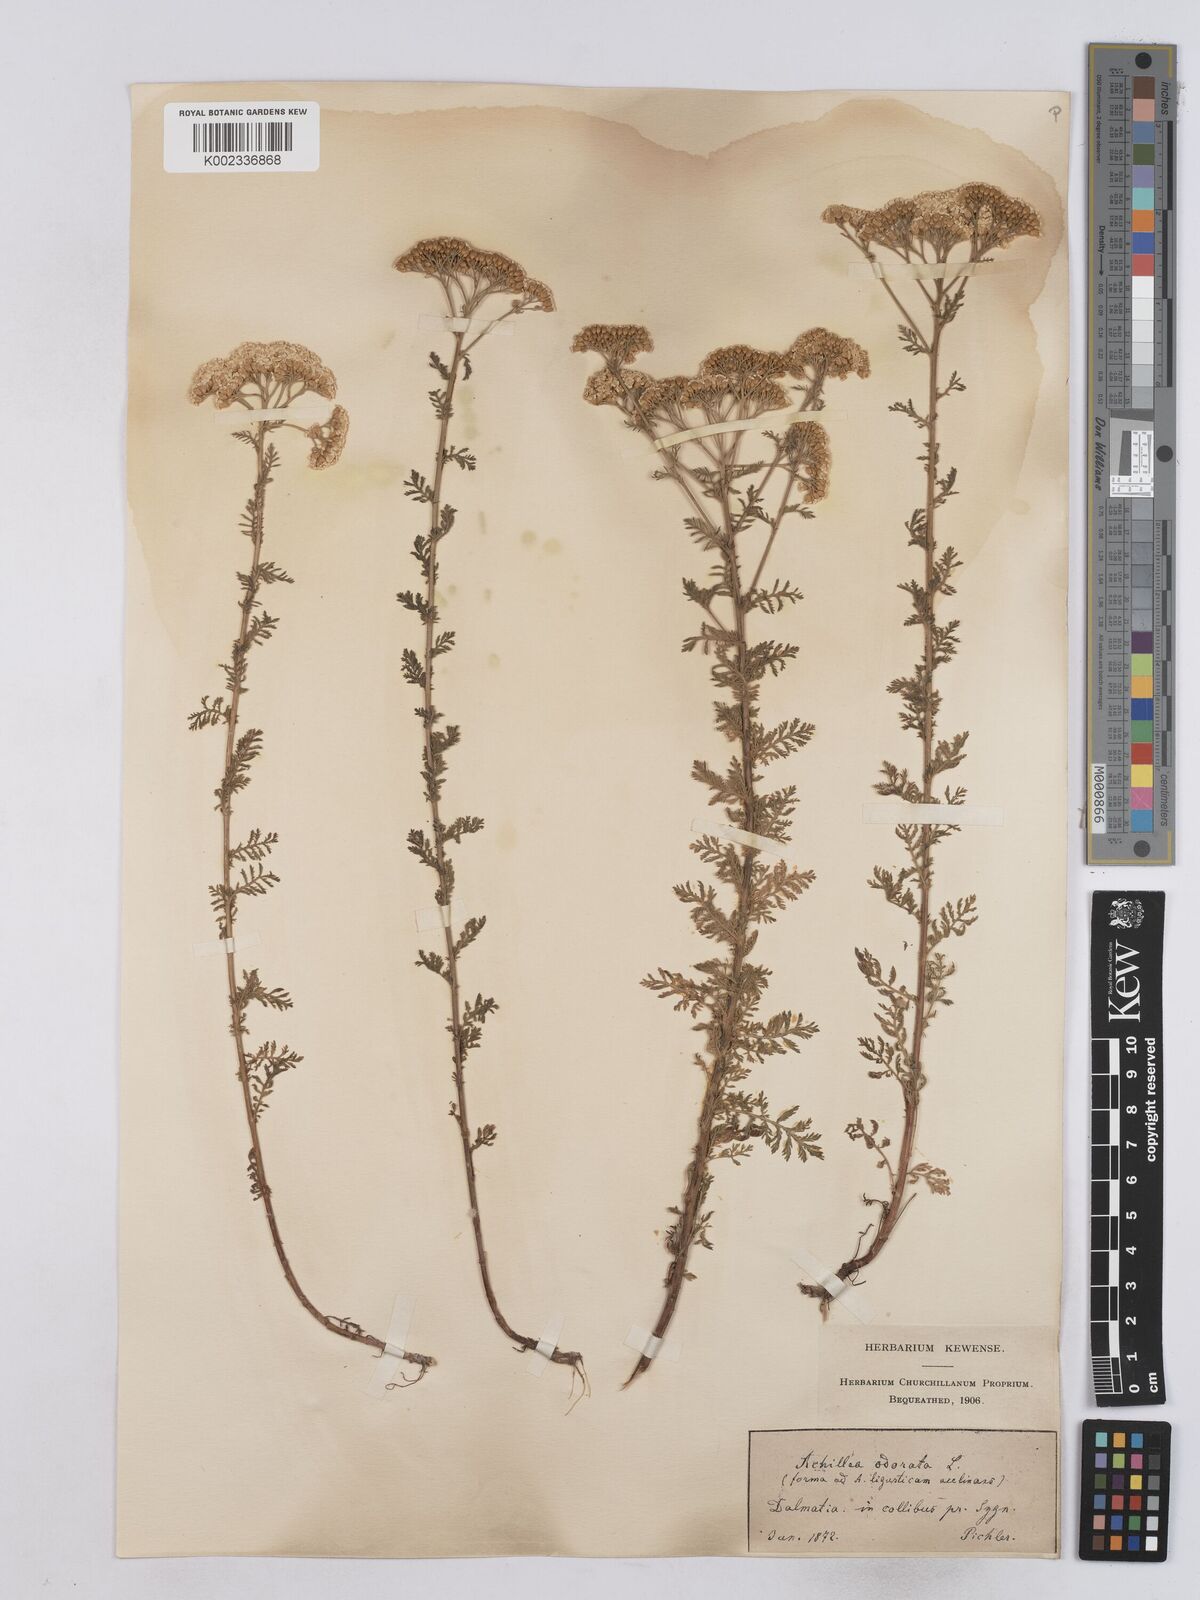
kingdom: Plantae
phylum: Tracheophyta
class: Magnoliopsida
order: Asterales
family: Asteraceae
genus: Achillea
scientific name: Achillea odorata
